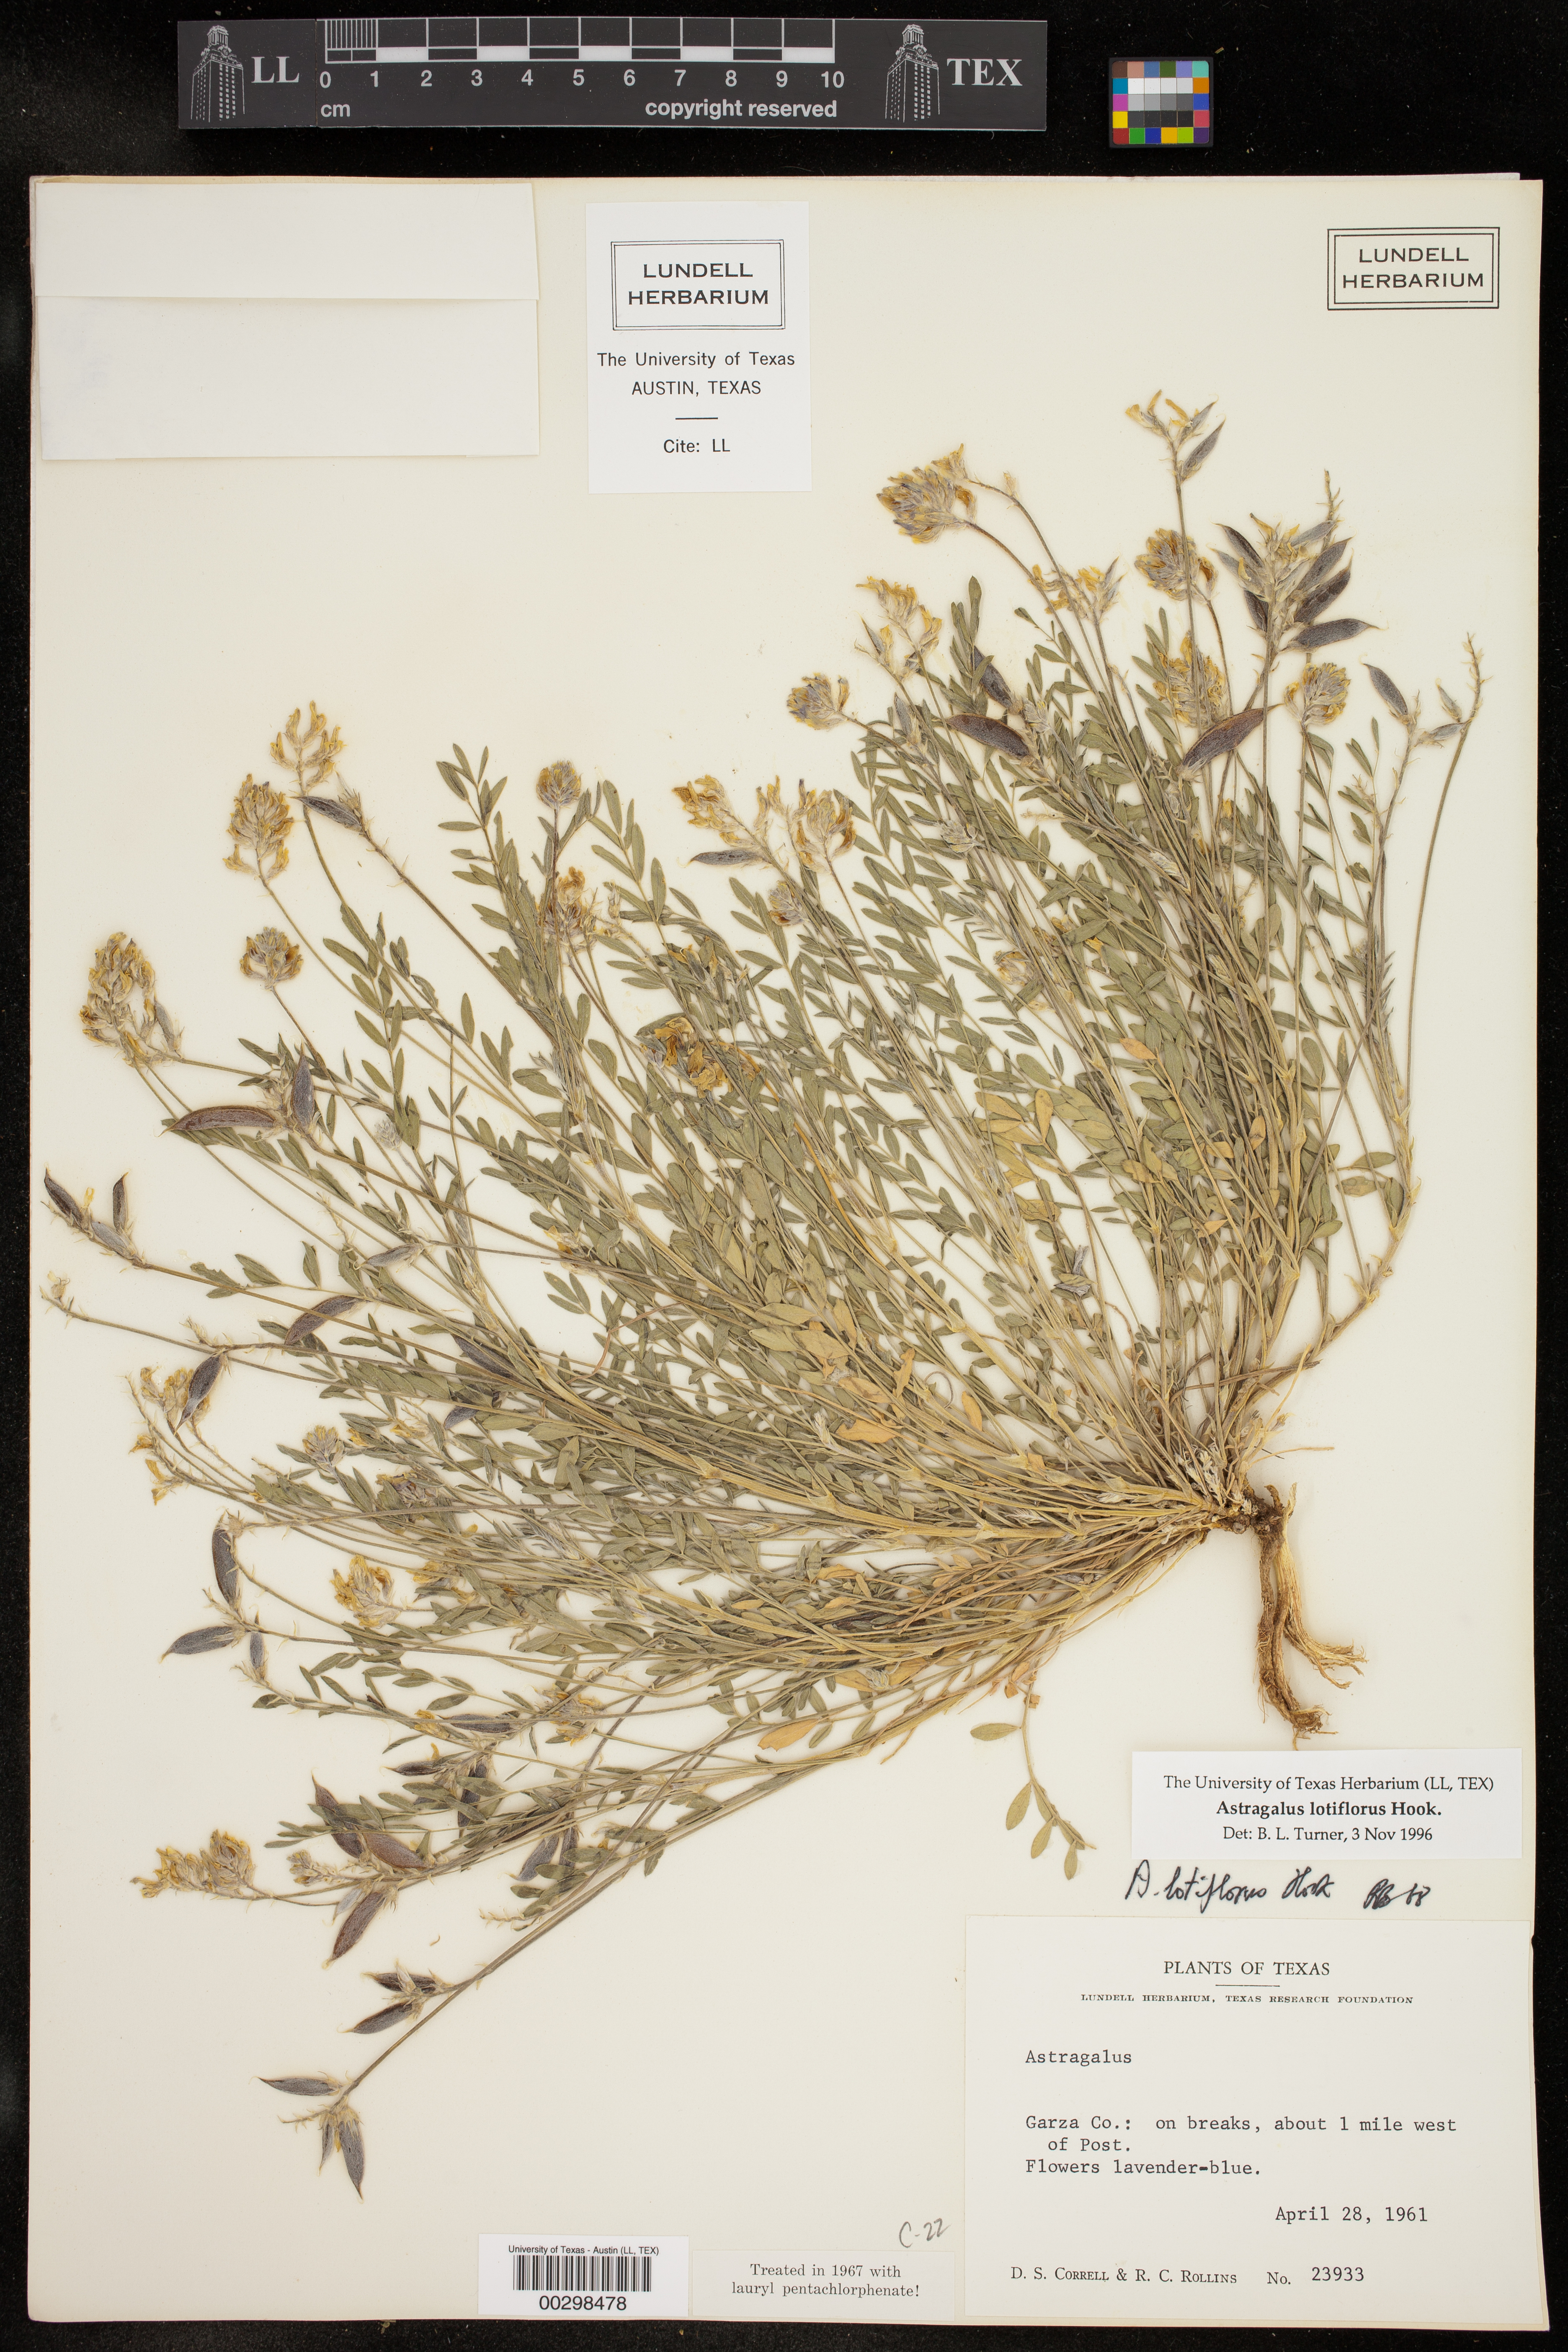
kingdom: Plantae
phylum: Tracheophyta
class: Magnoliopsida
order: Fabales
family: Fabaceae
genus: Astragalus
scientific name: Astragalus lotiflorus
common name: Lotus milk-vetch
